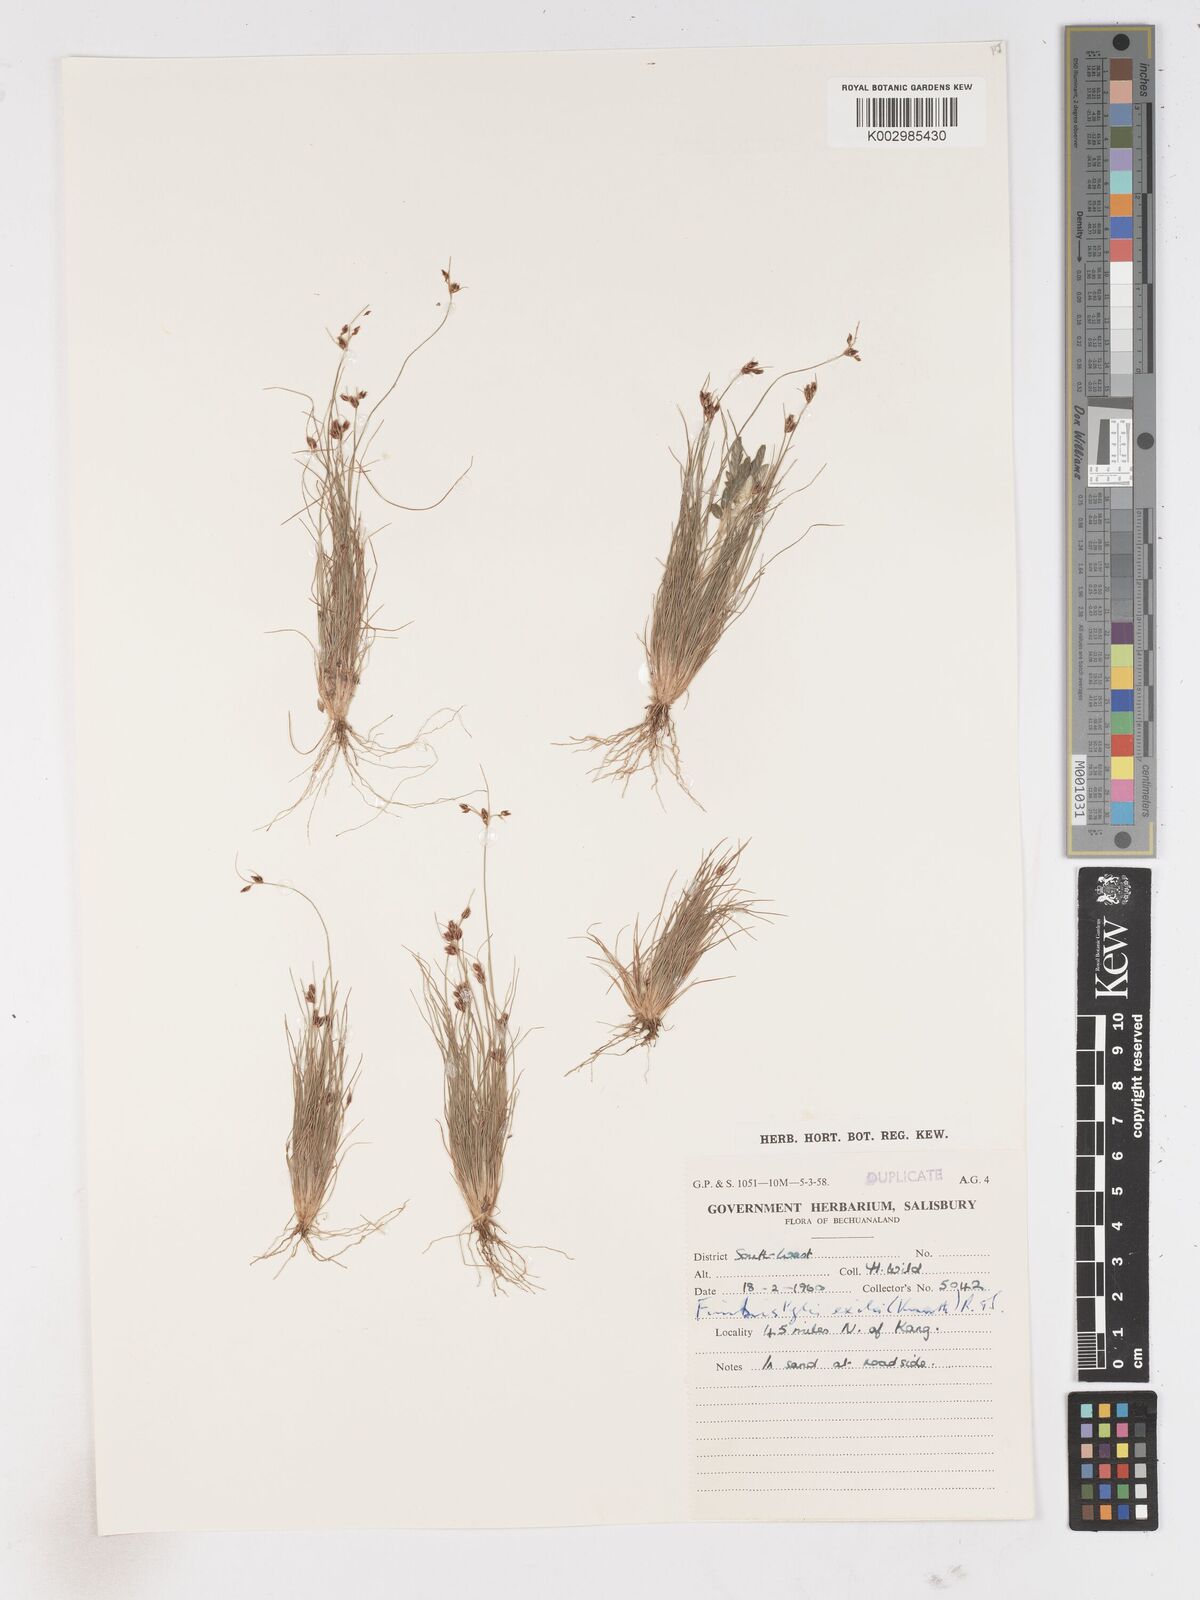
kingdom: Plantae
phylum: Tracheophyta
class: Liliopsida
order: Poales
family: Cyperaceae
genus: Fimbristylis
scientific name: Fimbristylis
